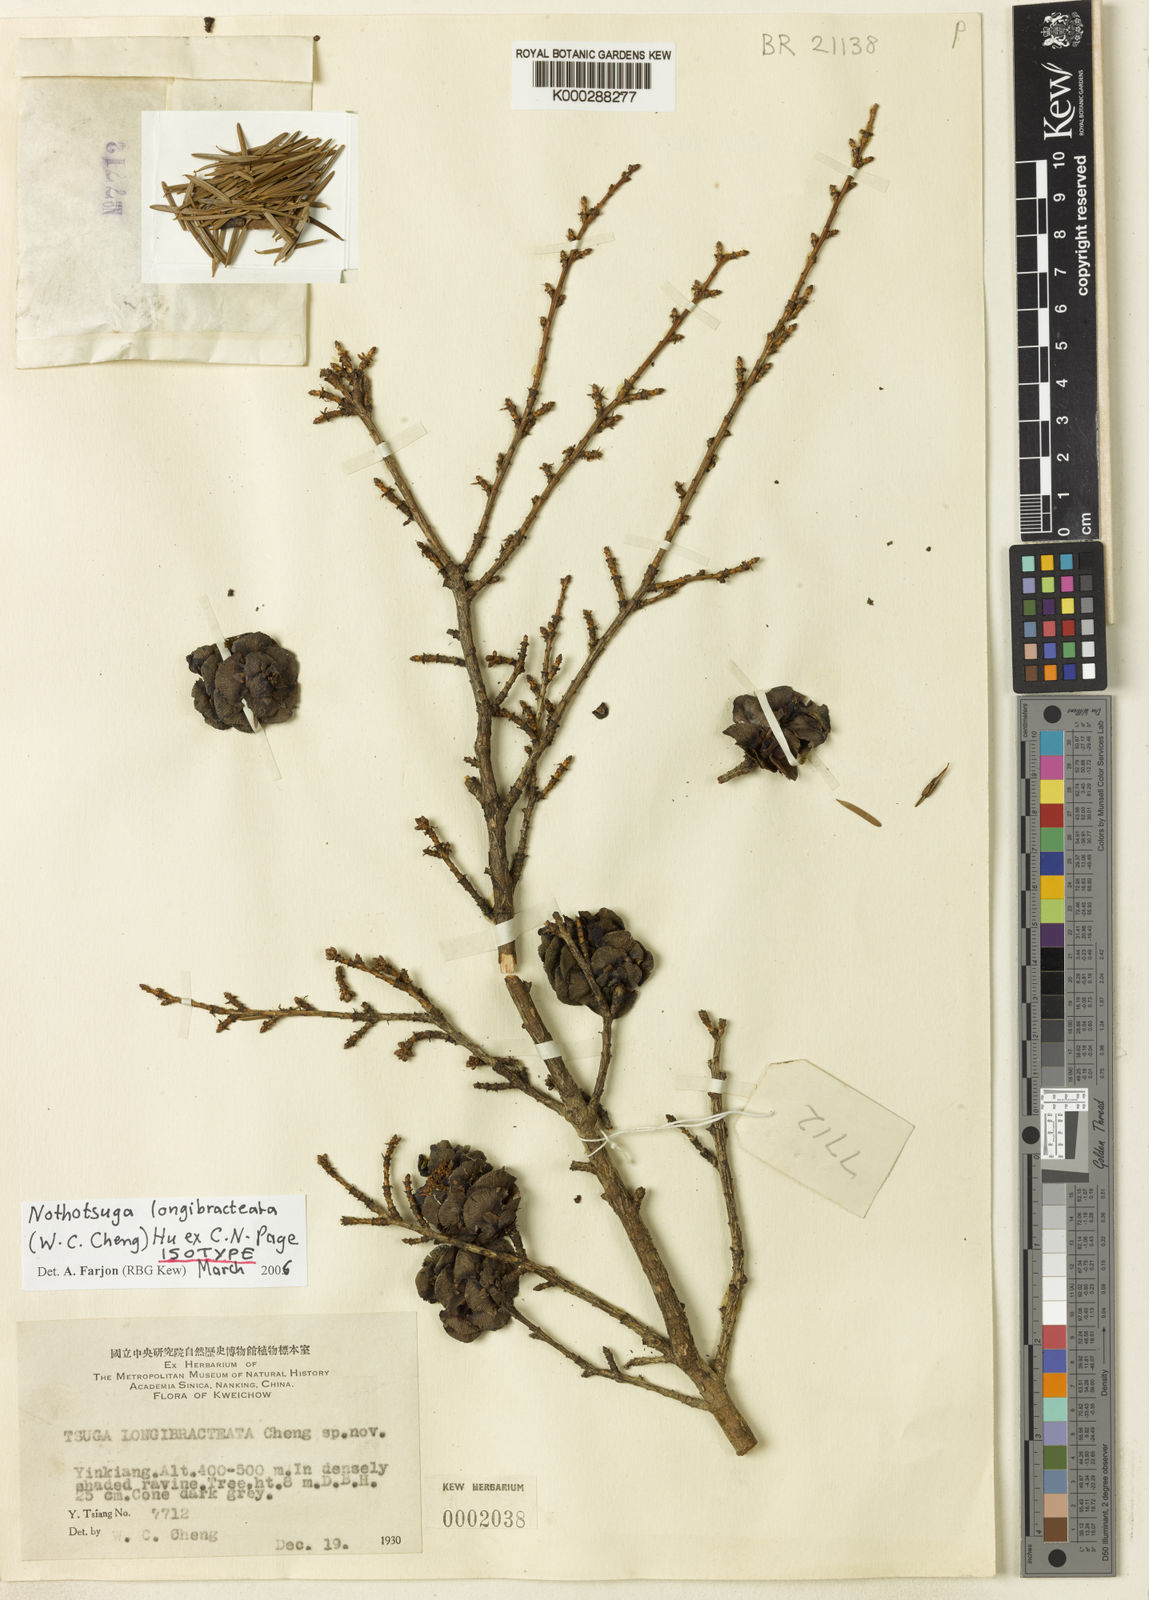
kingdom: Plantae
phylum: Tracheophyta
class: Pinopsida
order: Pinales
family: Pinaceae
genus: Nothotsuga
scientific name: Nothotsuga longibracteata
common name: Bristlecone hemlock
